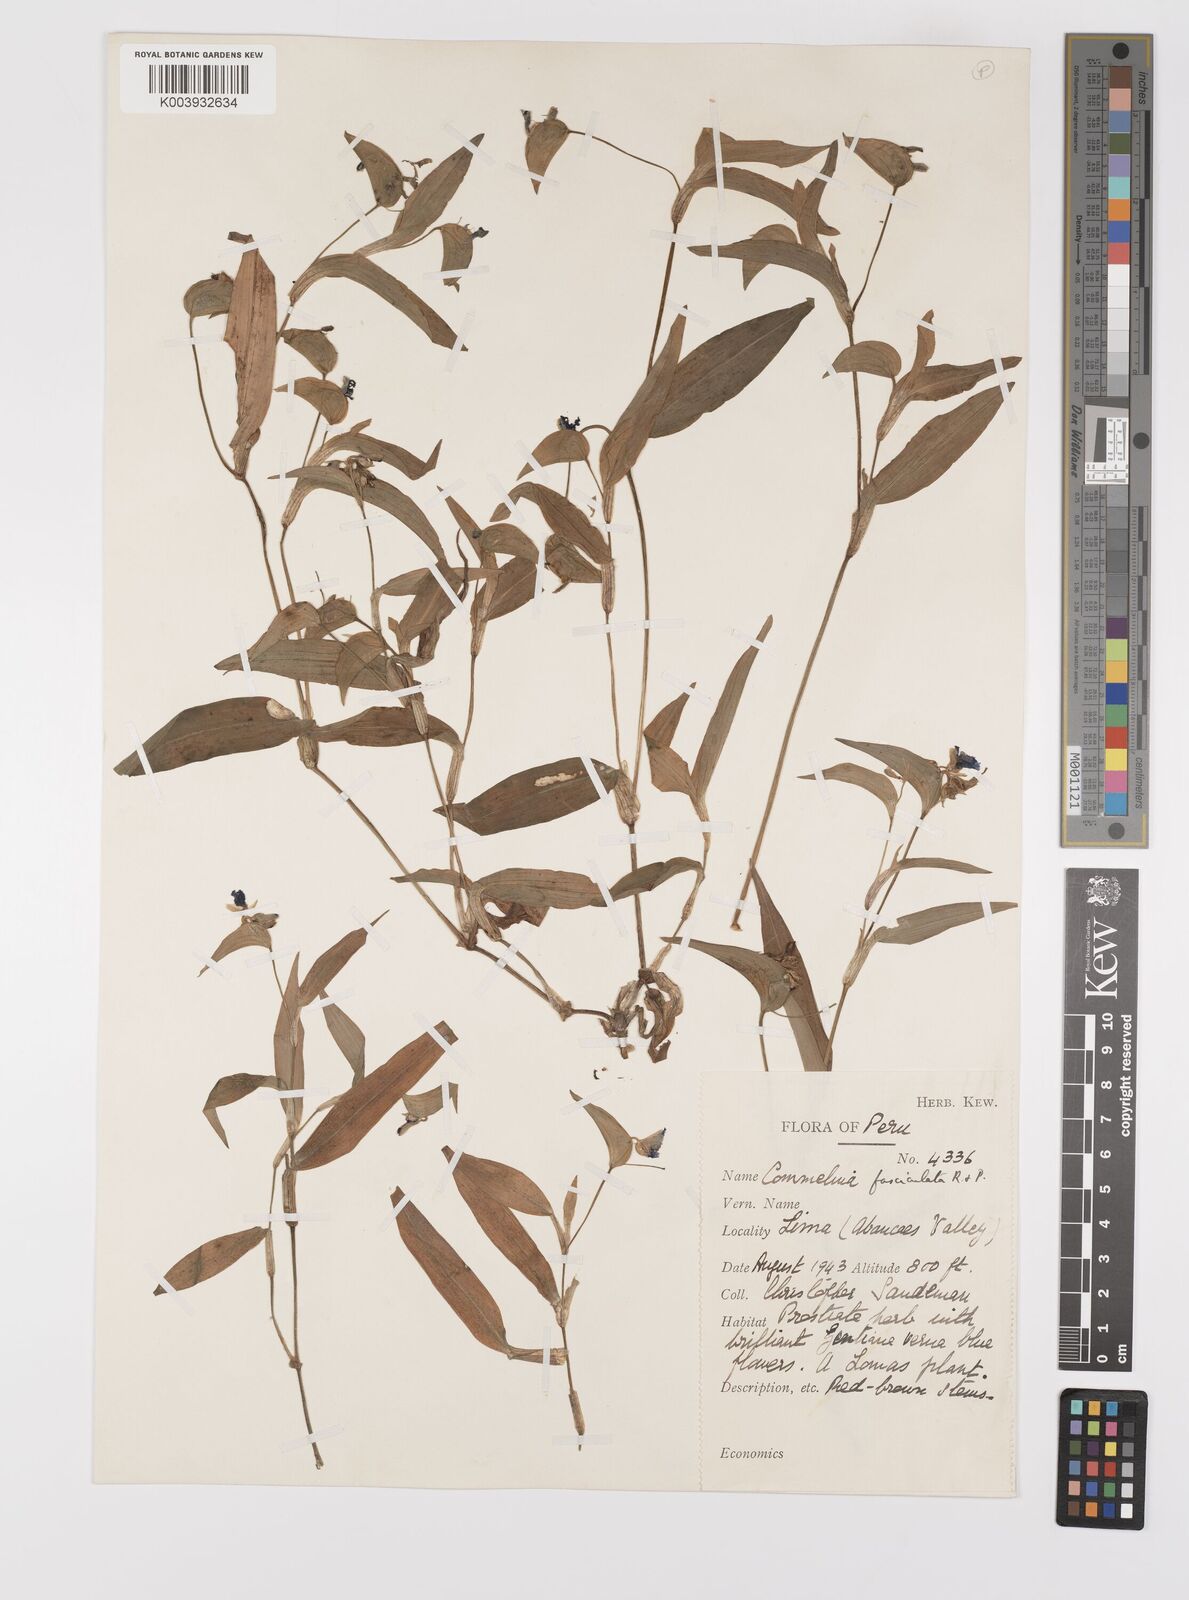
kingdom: Plantae
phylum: Tracheophyta
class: Liliopsida
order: Commelinales
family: Commelinaceae
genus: Commelina
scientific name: Commelina tuberosa
